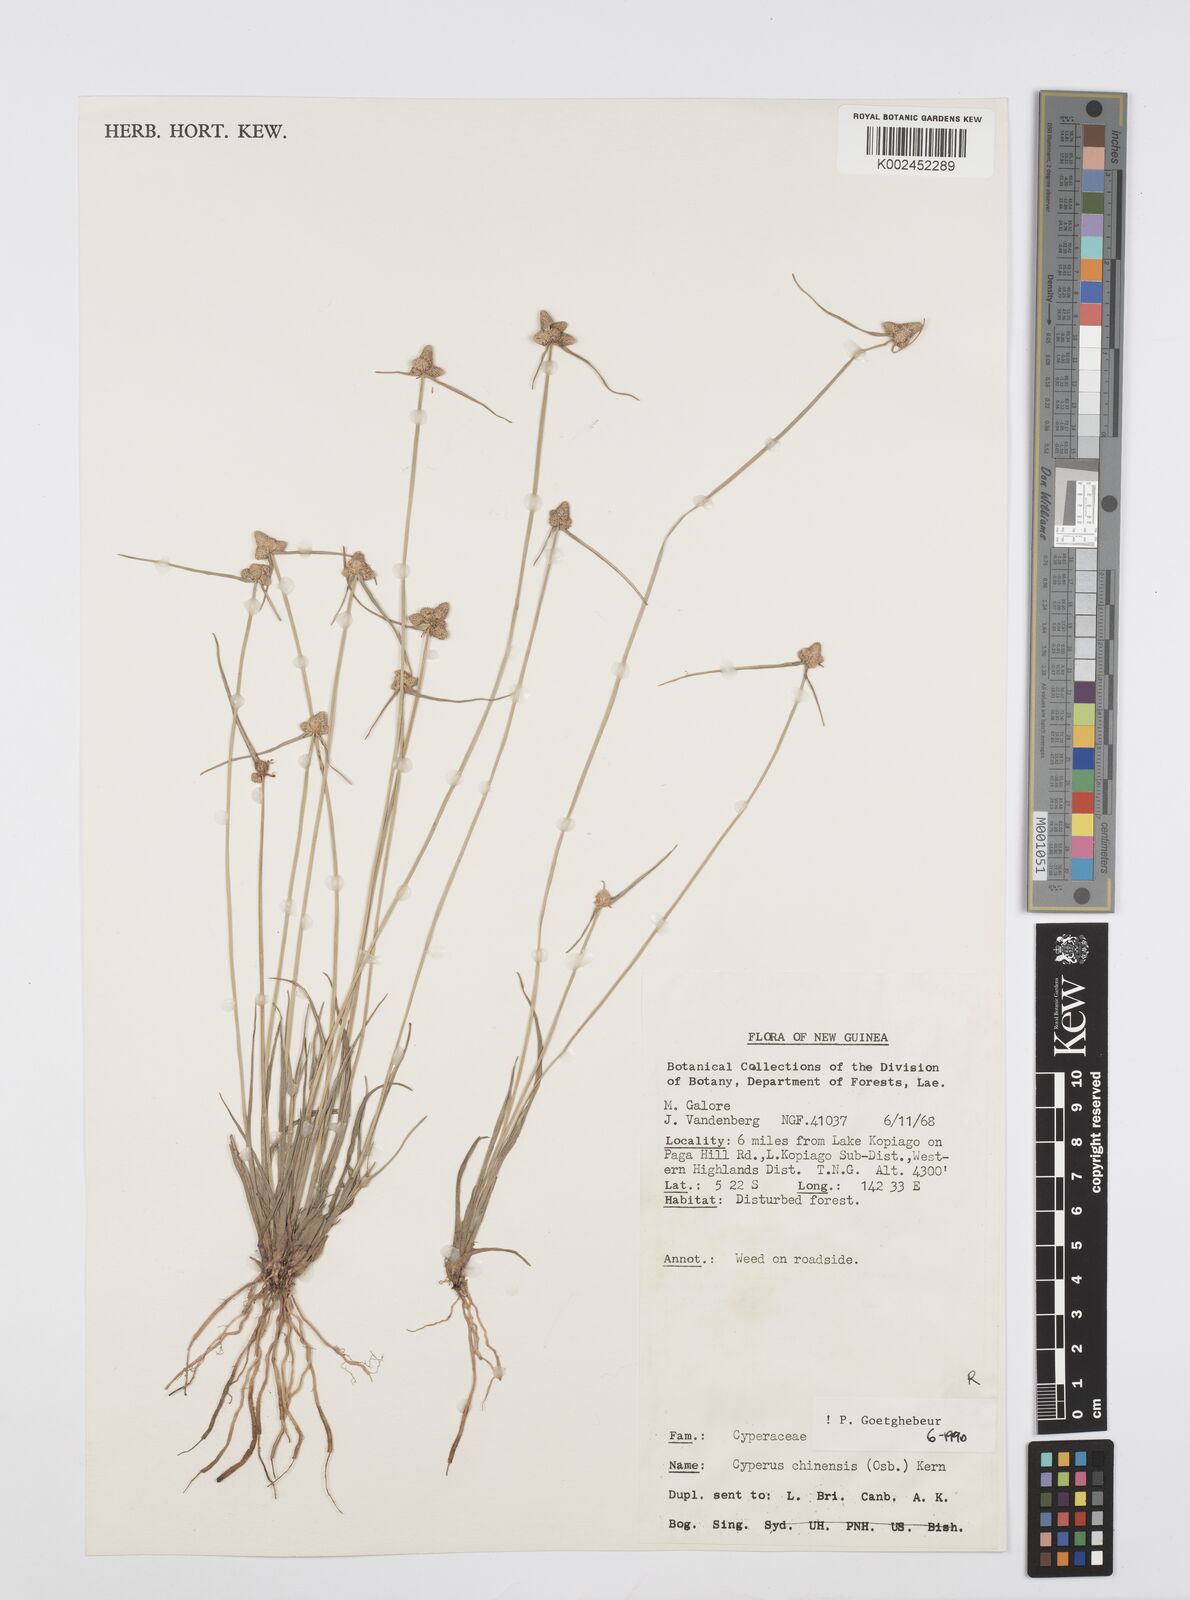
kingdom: Plantae
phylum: Tracheophyta
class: Liliopsida
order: Poales
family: Cyperaceae
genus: Cyperus
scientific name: Cyperus albescens
